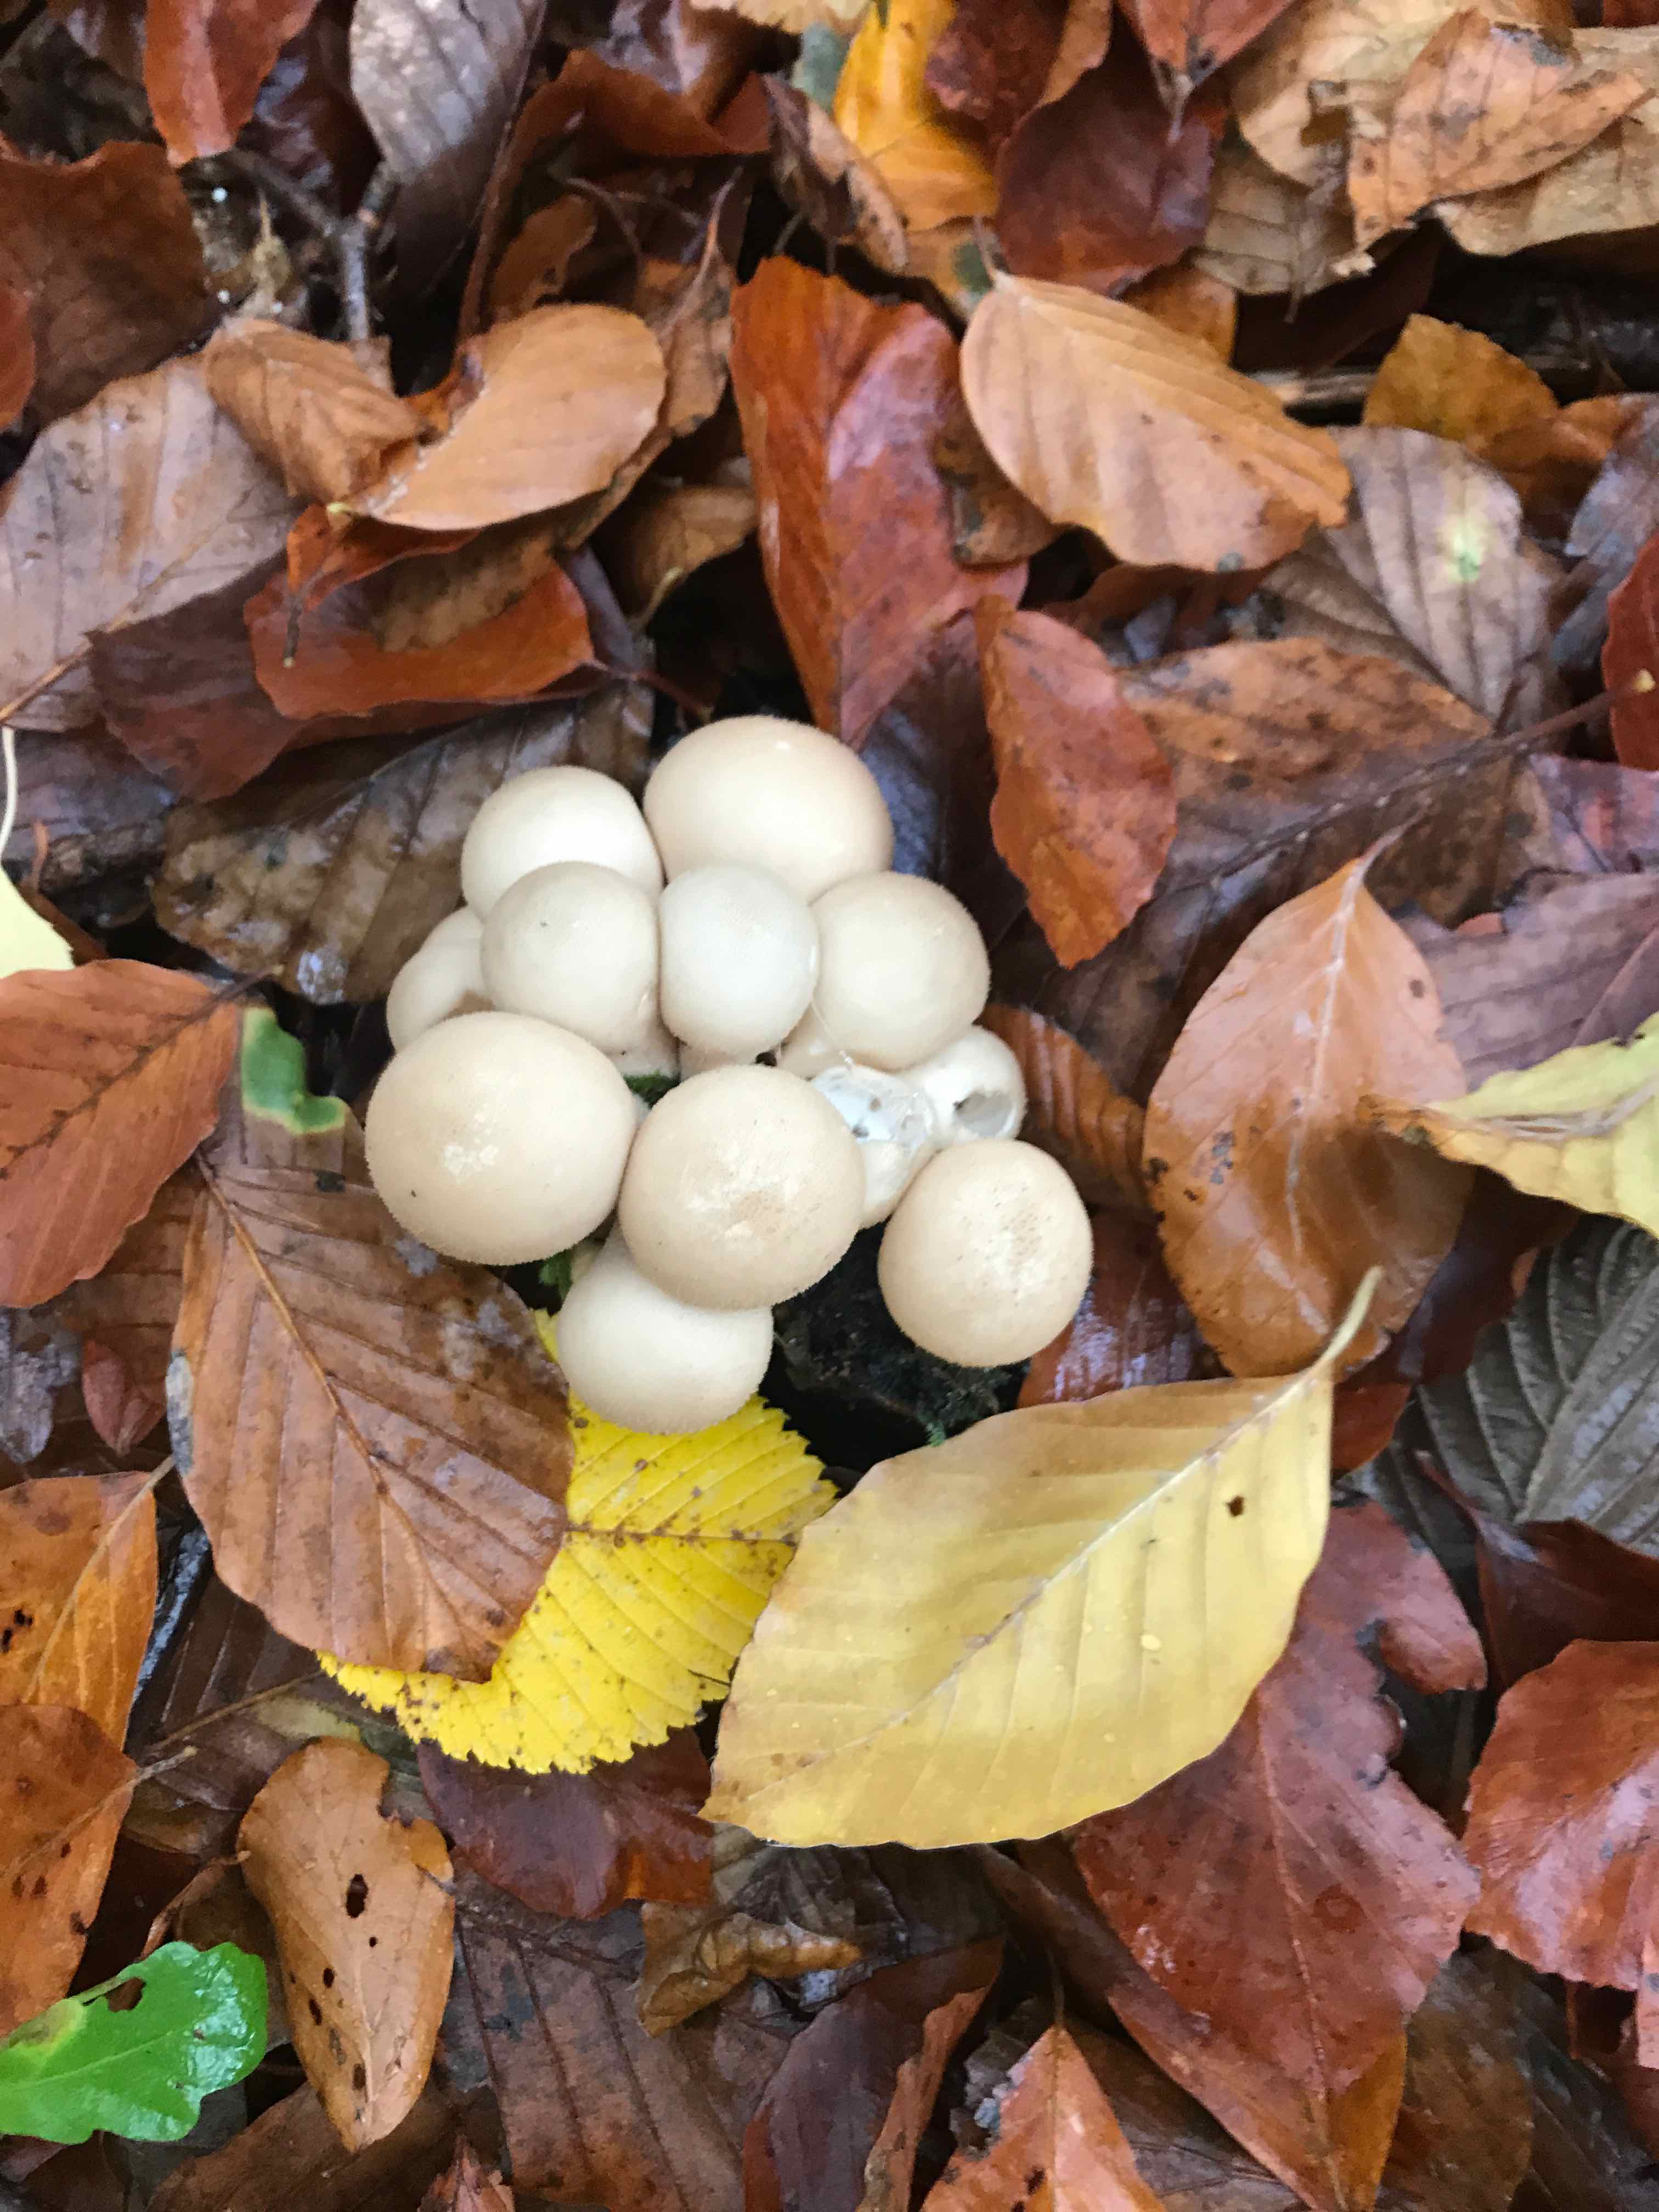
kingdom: Fungi
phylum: Basidiomycota
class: Agaricomycetes
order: Agaricales
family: Lycoperdaceae
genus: Apioperdon
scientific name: Apioperdon pyriforme
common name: pære-støvbold
